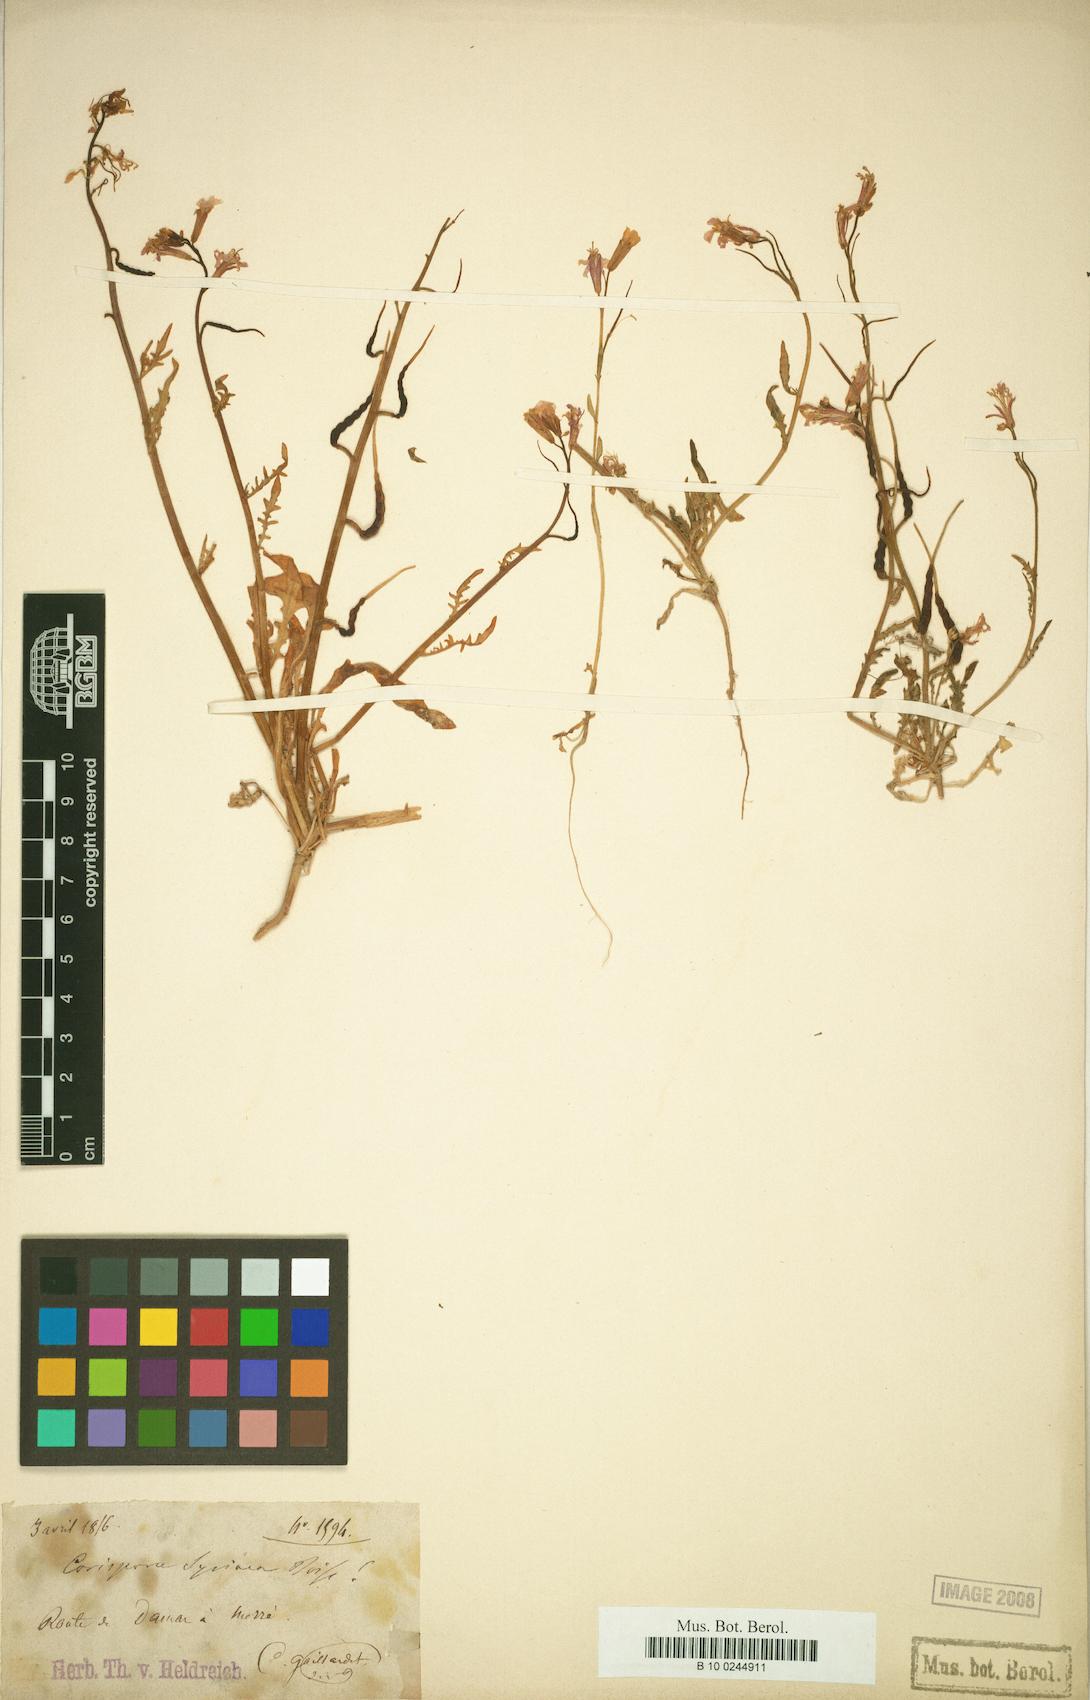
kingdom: Plantae
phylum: Tracheophyta
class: Magnoliopsida
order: Brassicales
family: Brassicaceae
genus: Chorispora
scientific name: Chorispora purpurascens
